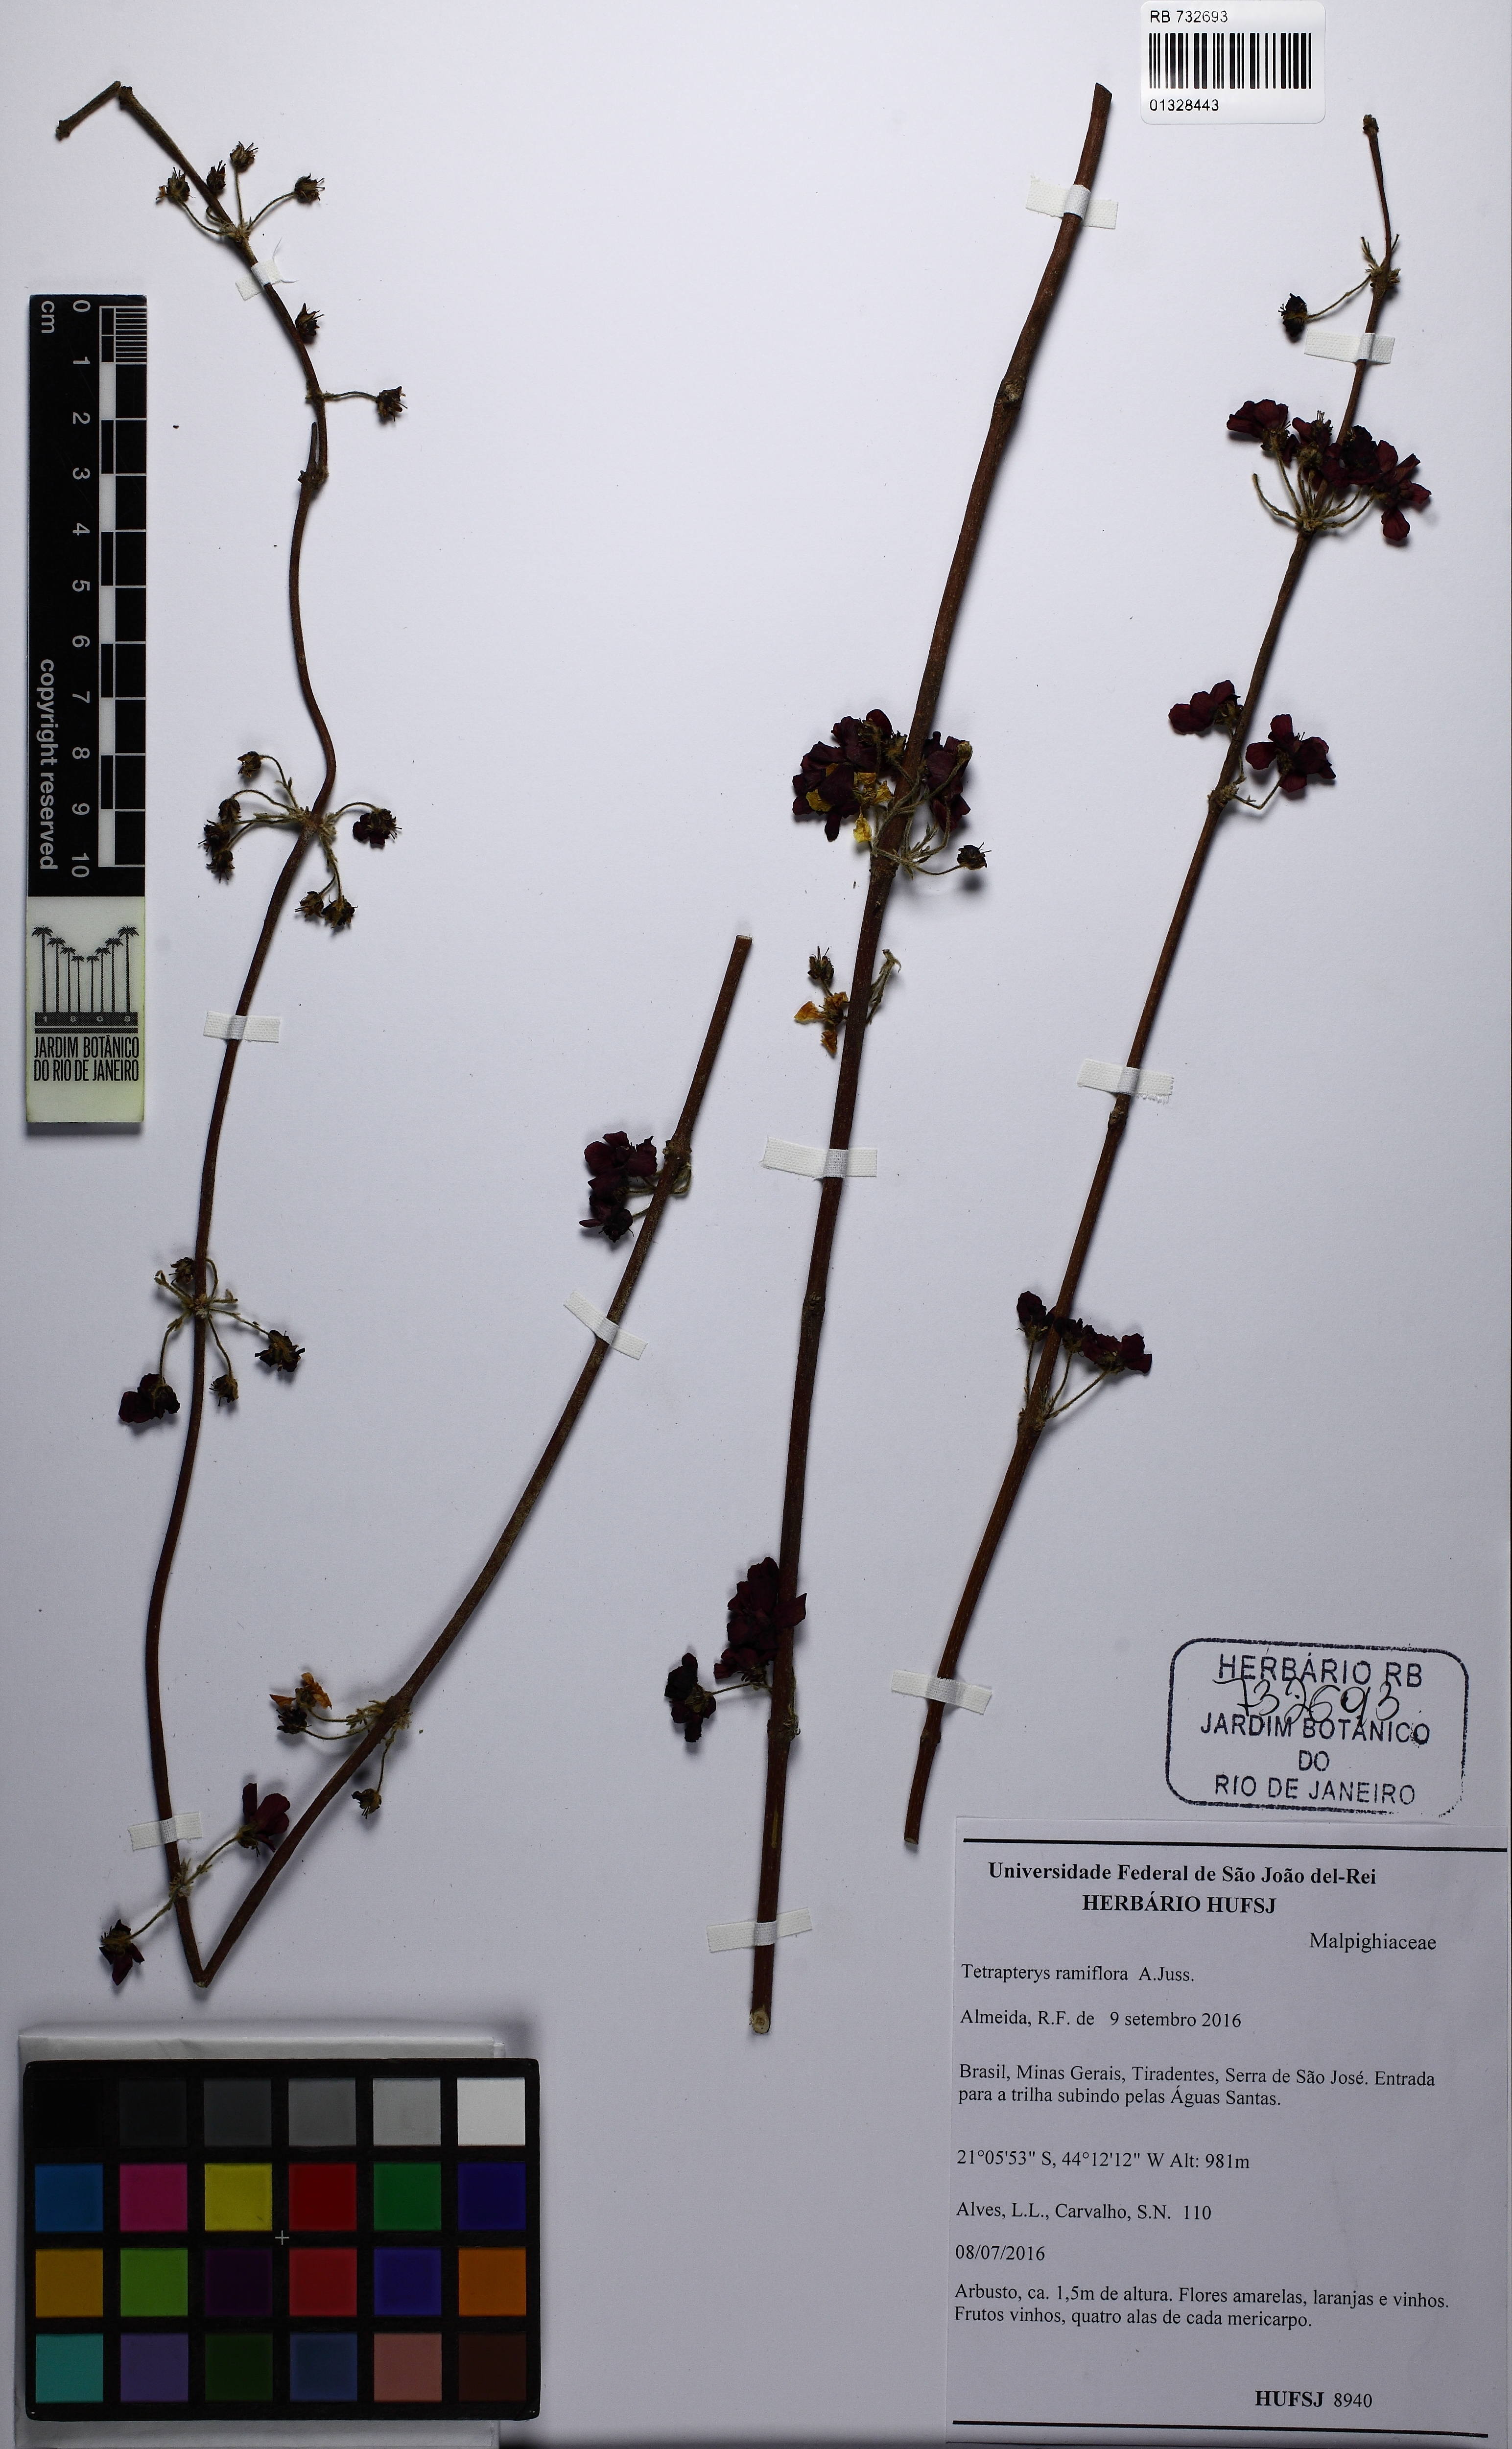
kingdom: Plantae
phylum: Tracheophyta
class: Magnoliopsida
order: Malpighiales
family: Malpighiaceae
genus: Tetrapterys
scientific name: Tetrapterys mucronata
